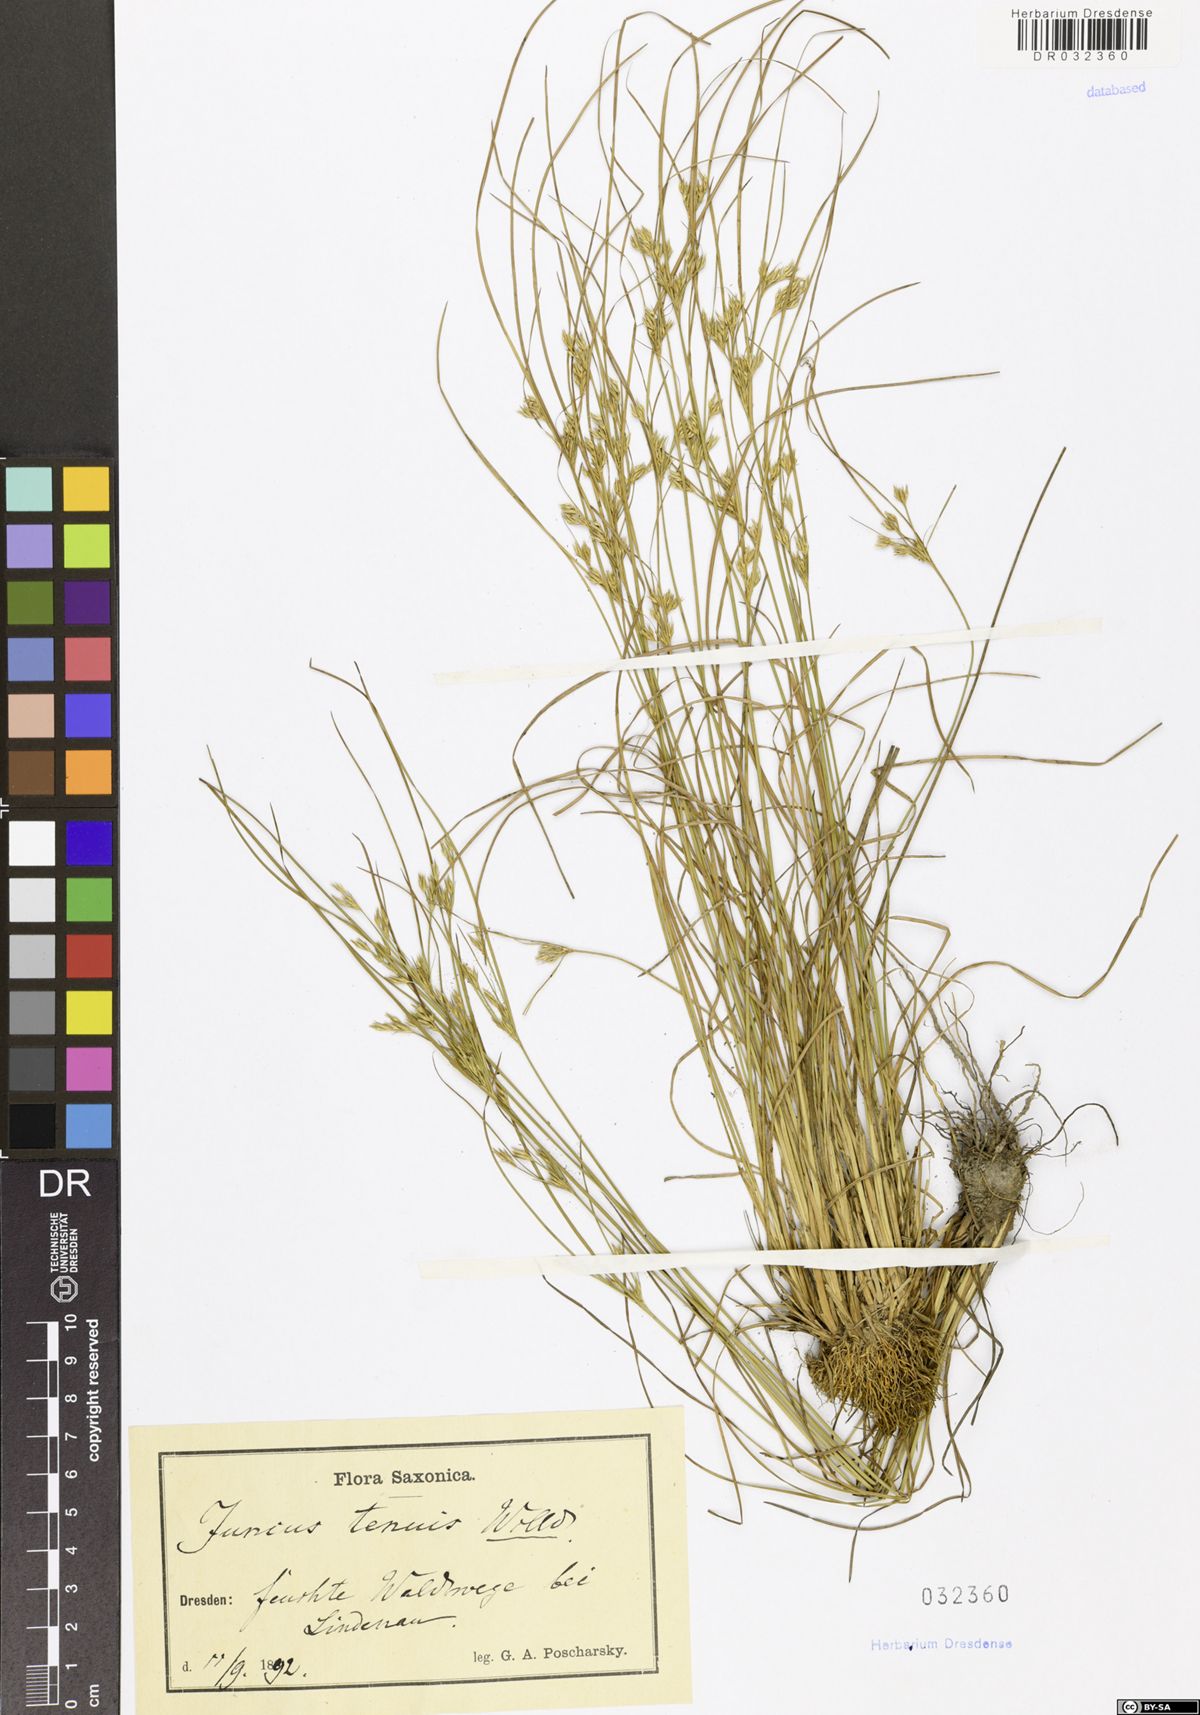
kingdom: Plantae
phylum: Tracheophyta
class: Liliopsida
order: Poales
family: Juncaceae
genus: Juncus
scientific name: Juncus tenuis
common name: Slender rush
